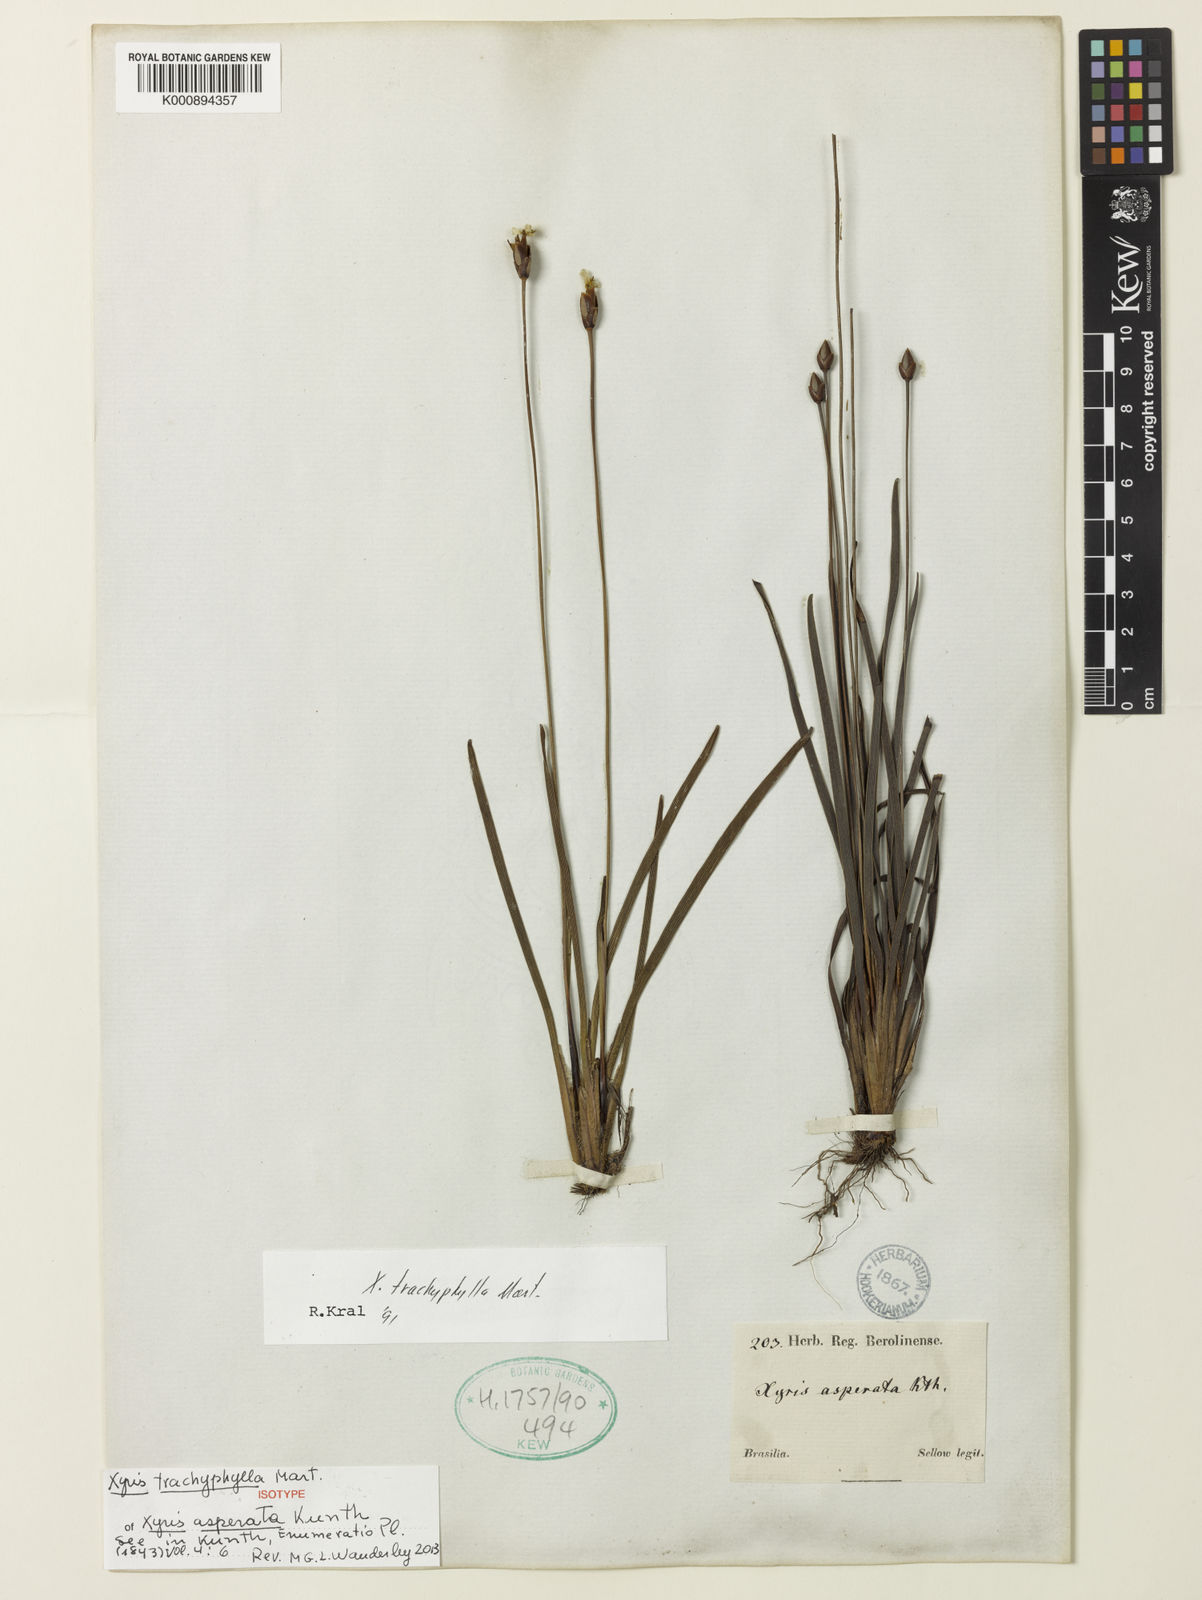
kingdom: Plantae
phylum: Tracheophyta
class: Liliopsida
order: Poales
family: Xyridaceae
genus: Xyris
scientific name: Xyris trachyphylla
